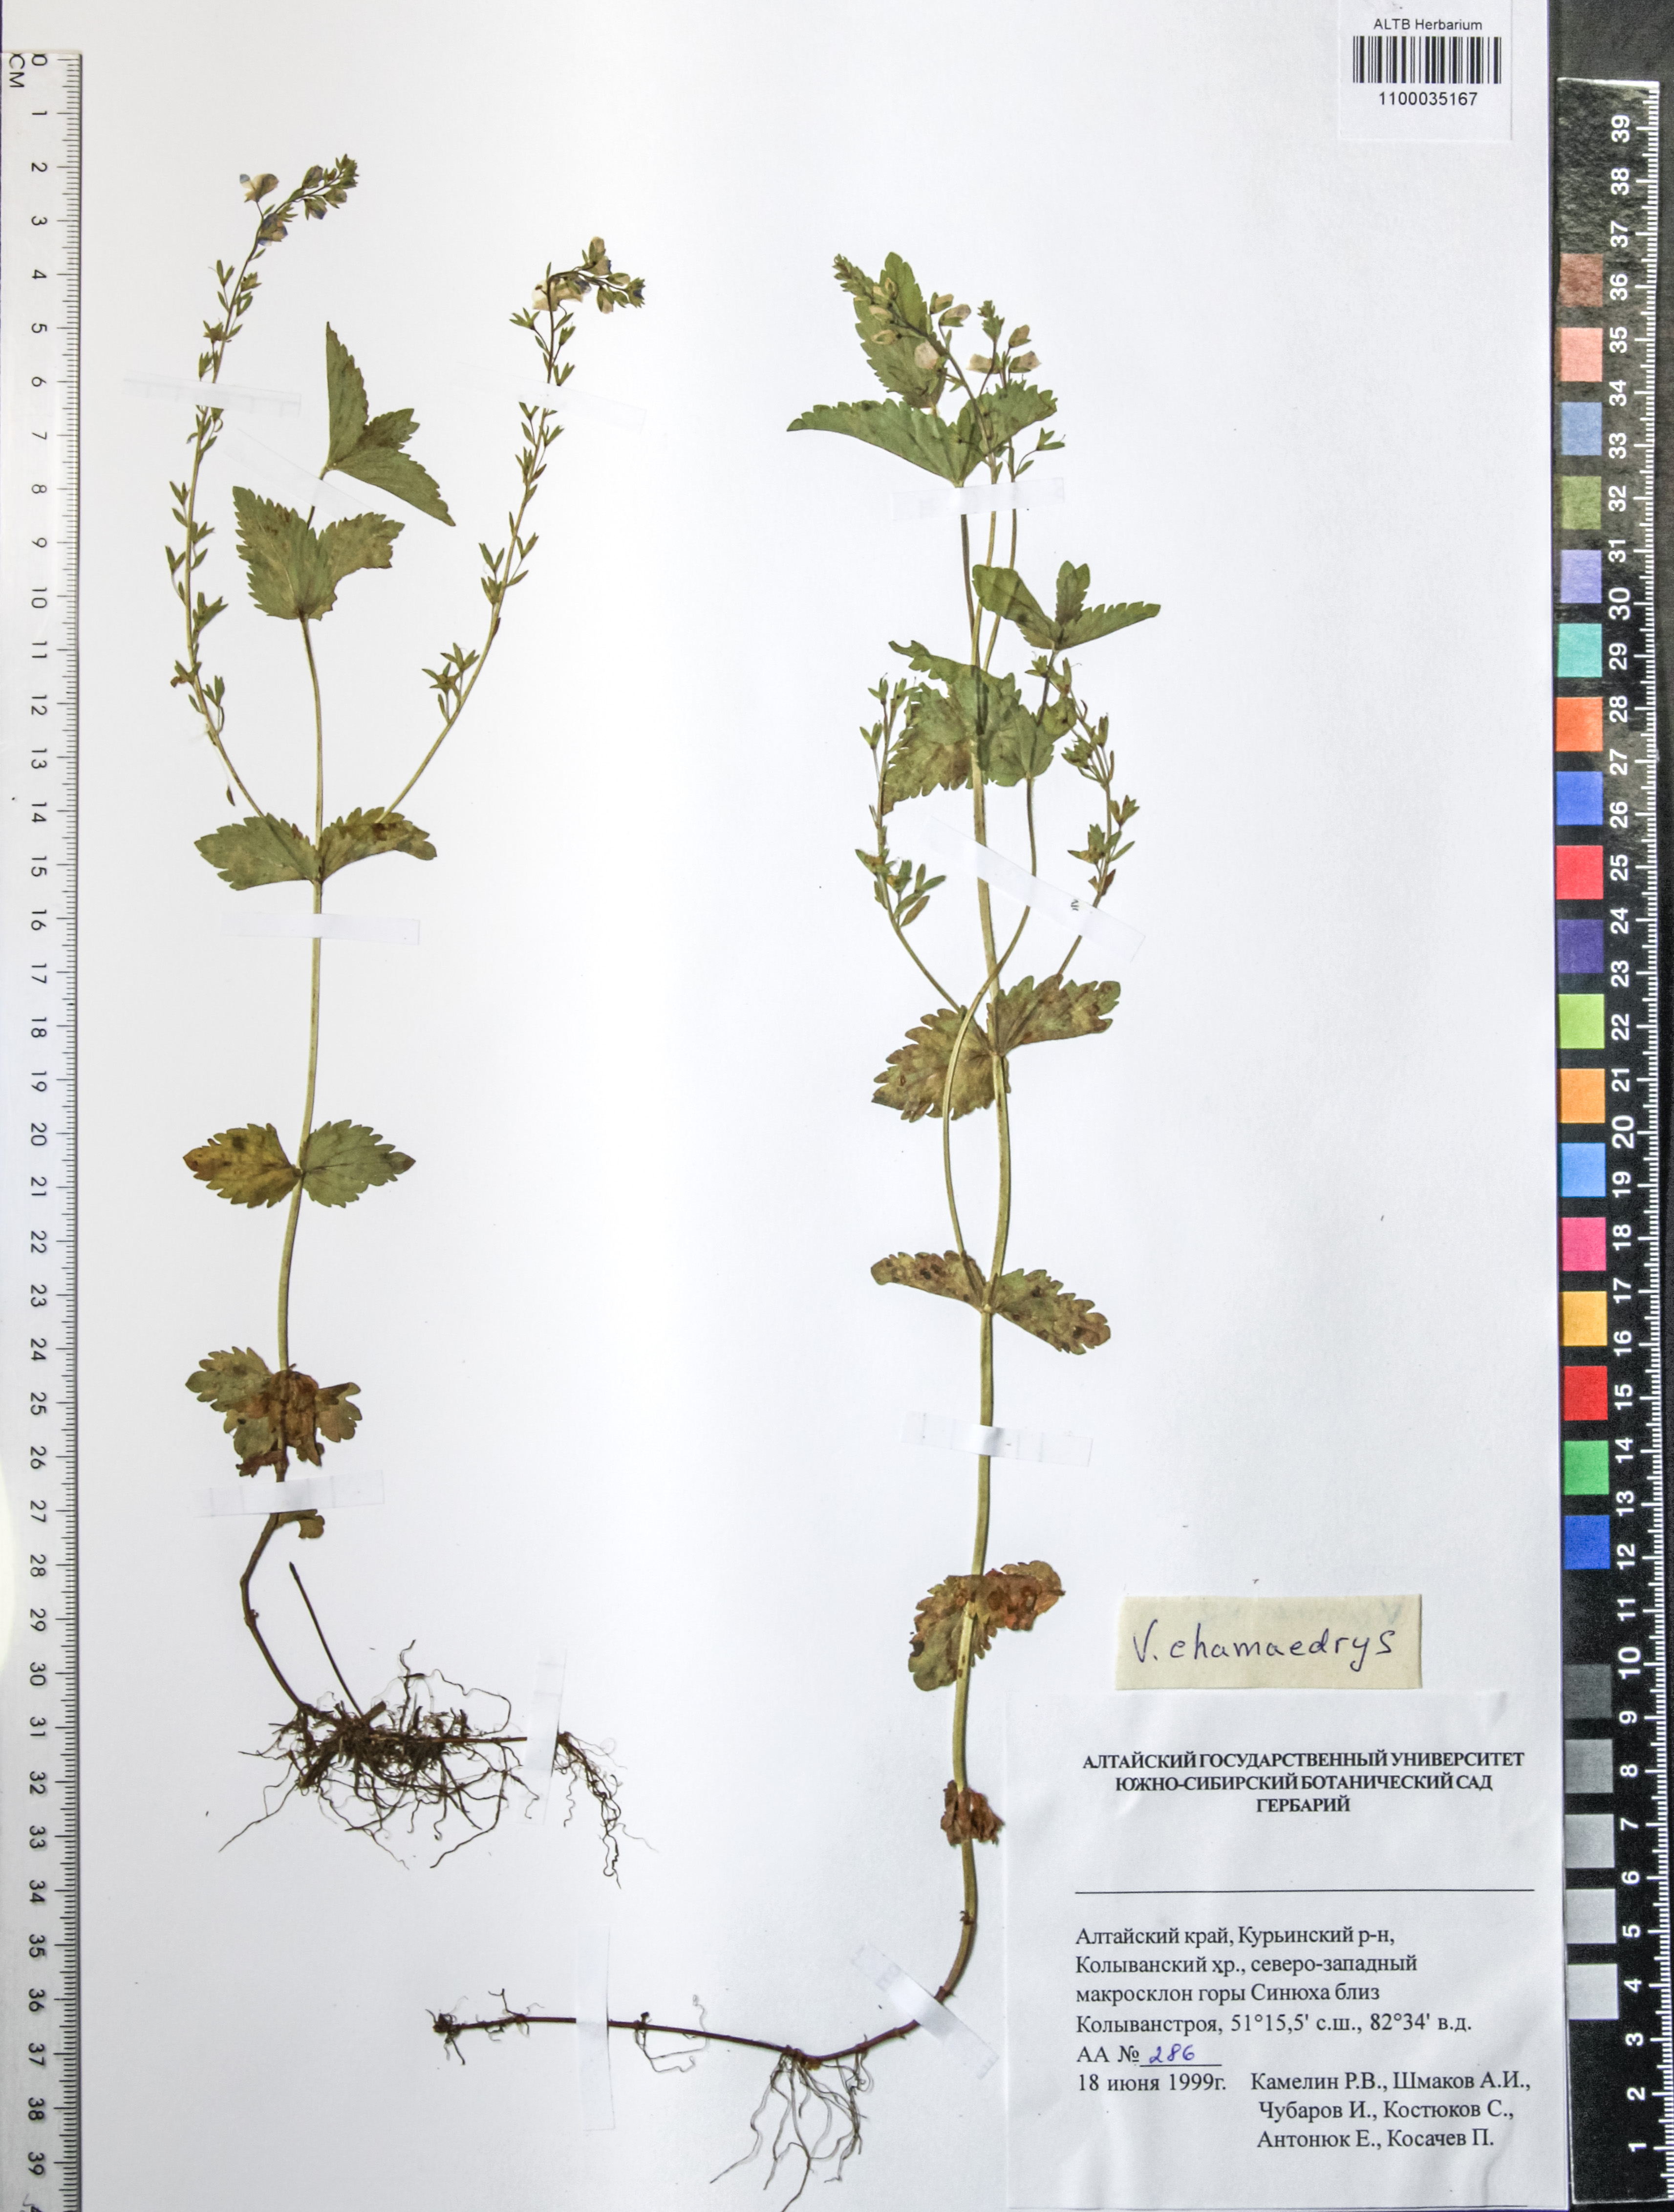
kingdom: Plantae
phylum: Tracheophyta
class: Magnoliopsida
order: Lamiales
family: Plantaginaceae
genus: Veronica
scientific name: Veronica chamaedrys
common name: Germander speedwell
